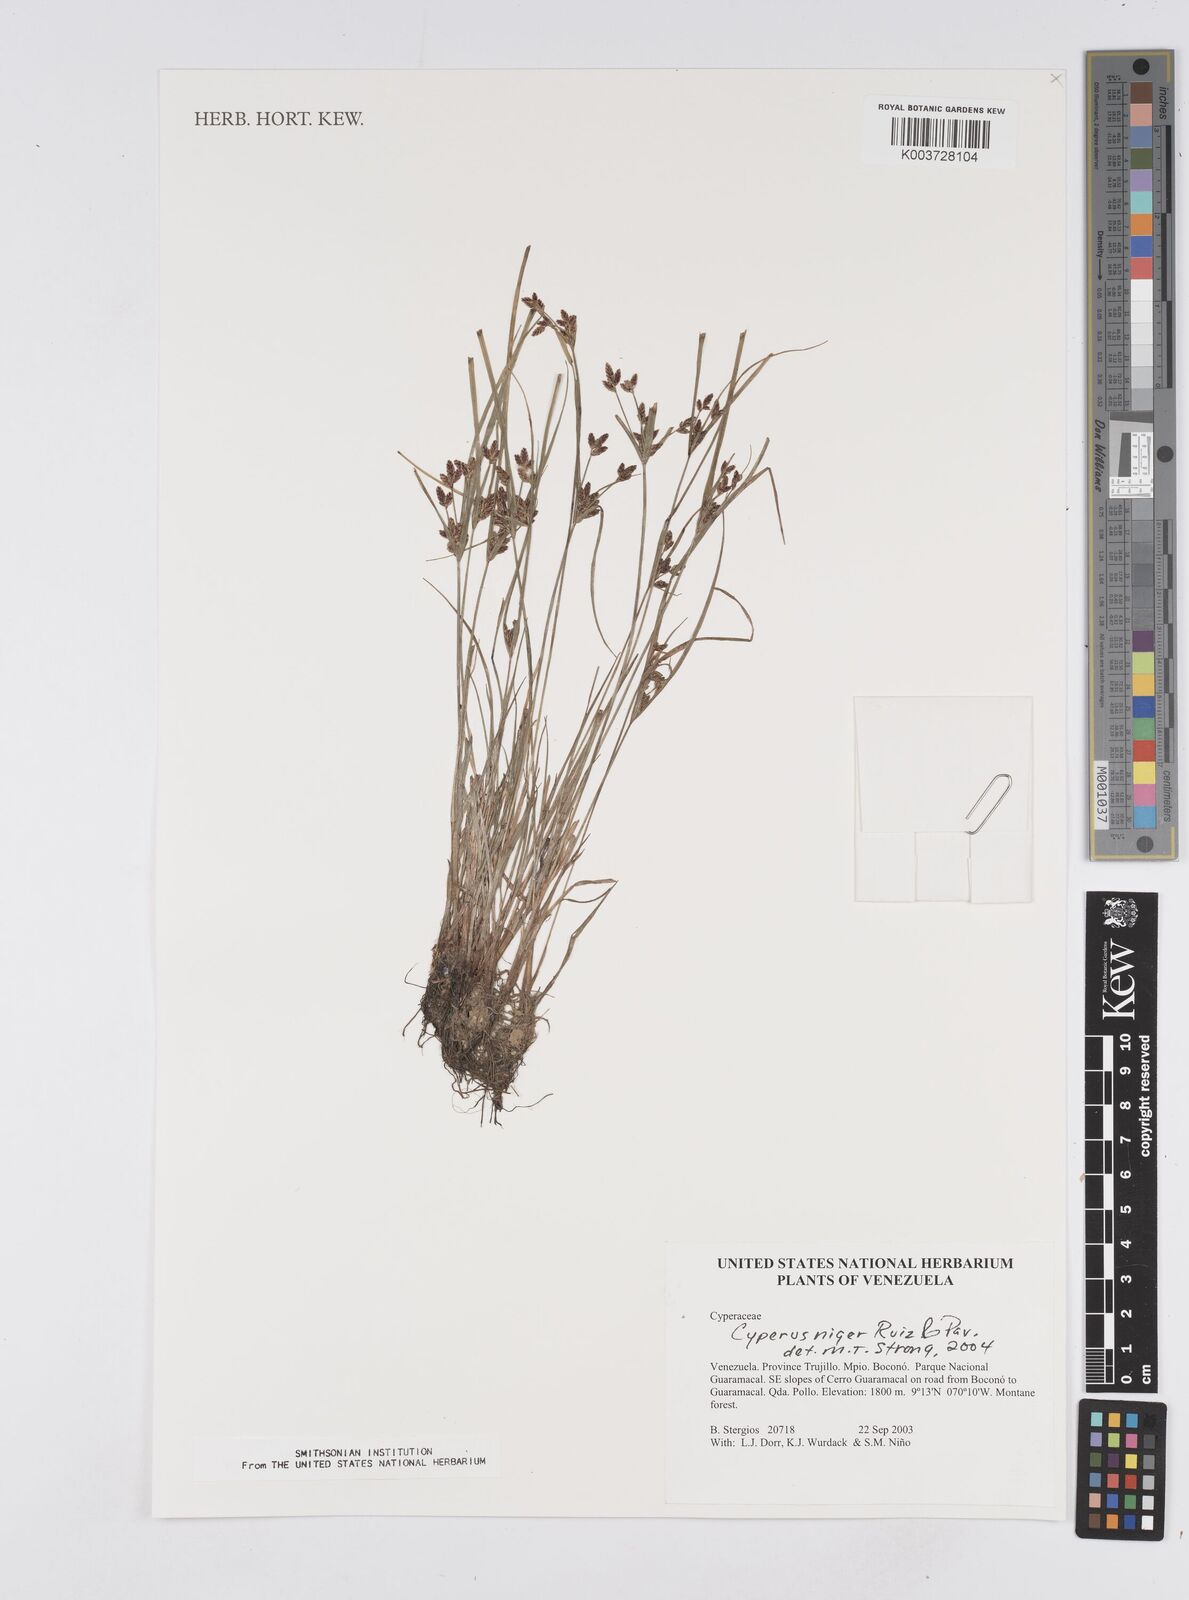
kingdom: Plantae
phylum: Tracheophyta
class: Liliopsida
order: Poales
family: Cyperaceae
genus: Cyperus
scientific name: Cyperus melanostachyus
